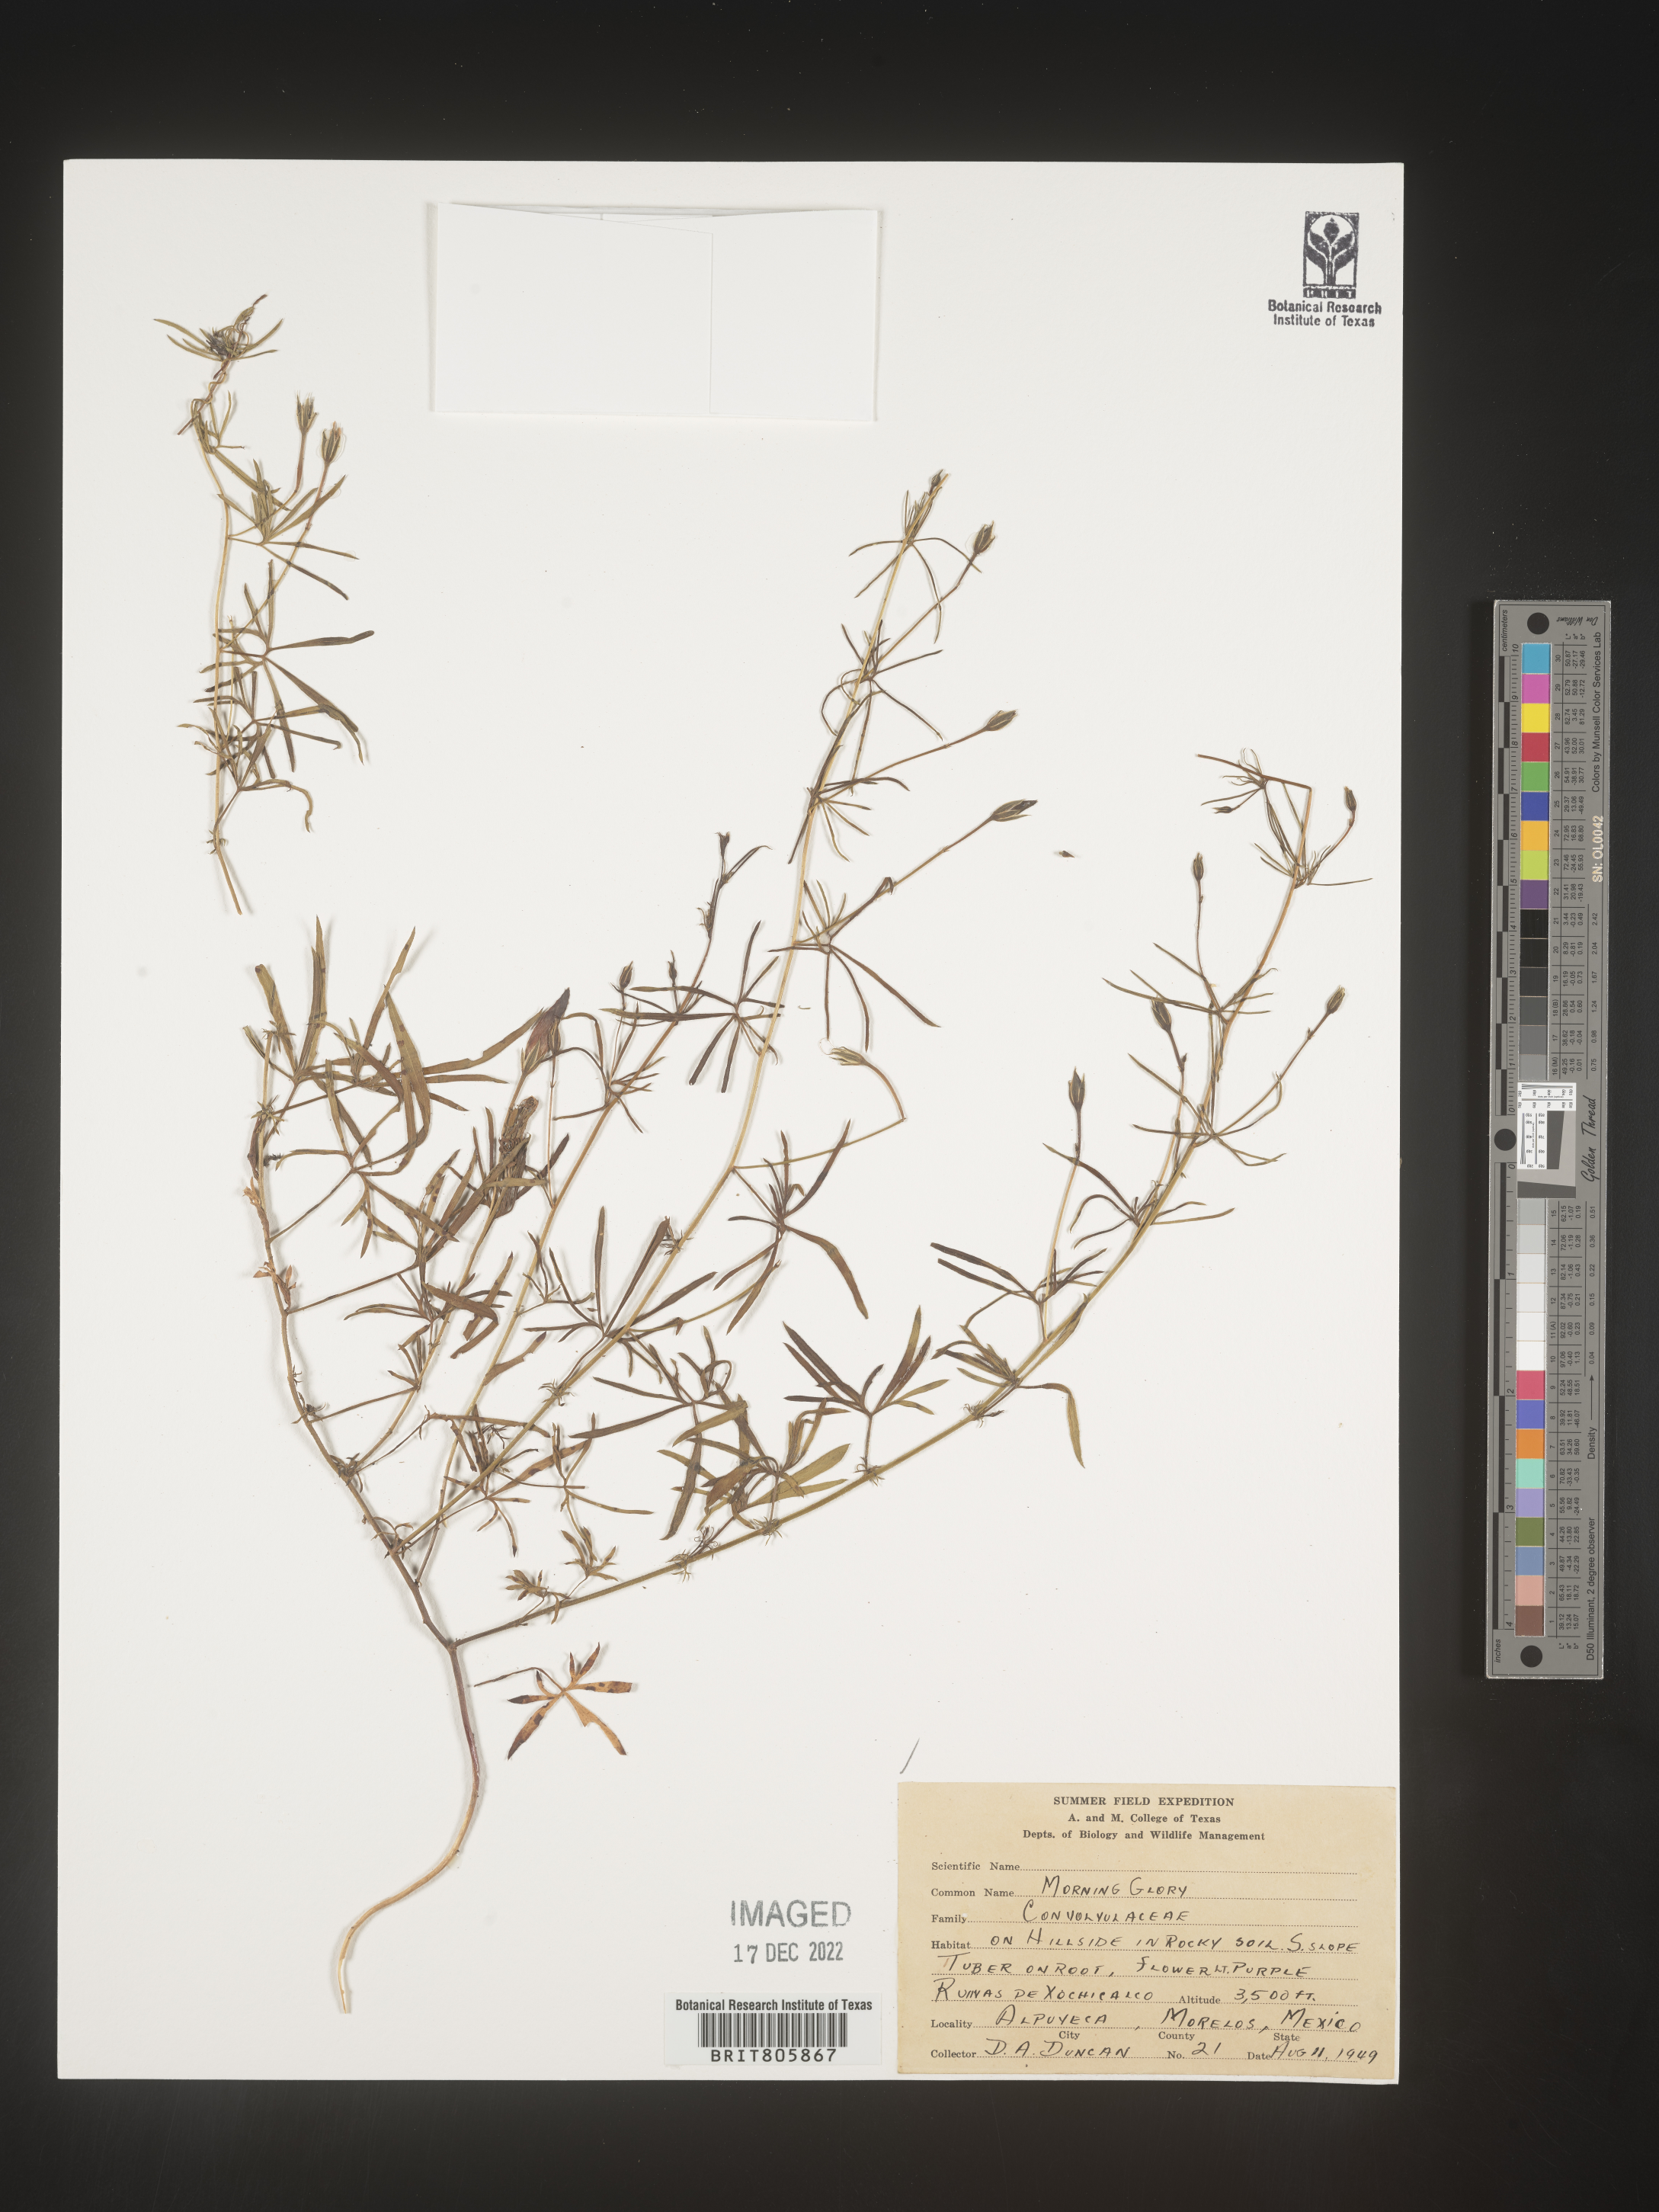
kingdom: Plantae
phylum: Tracheophyta
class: Magnoliopsida
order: Solanales
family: Convolvulaceae
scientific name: Convolvulaceae
